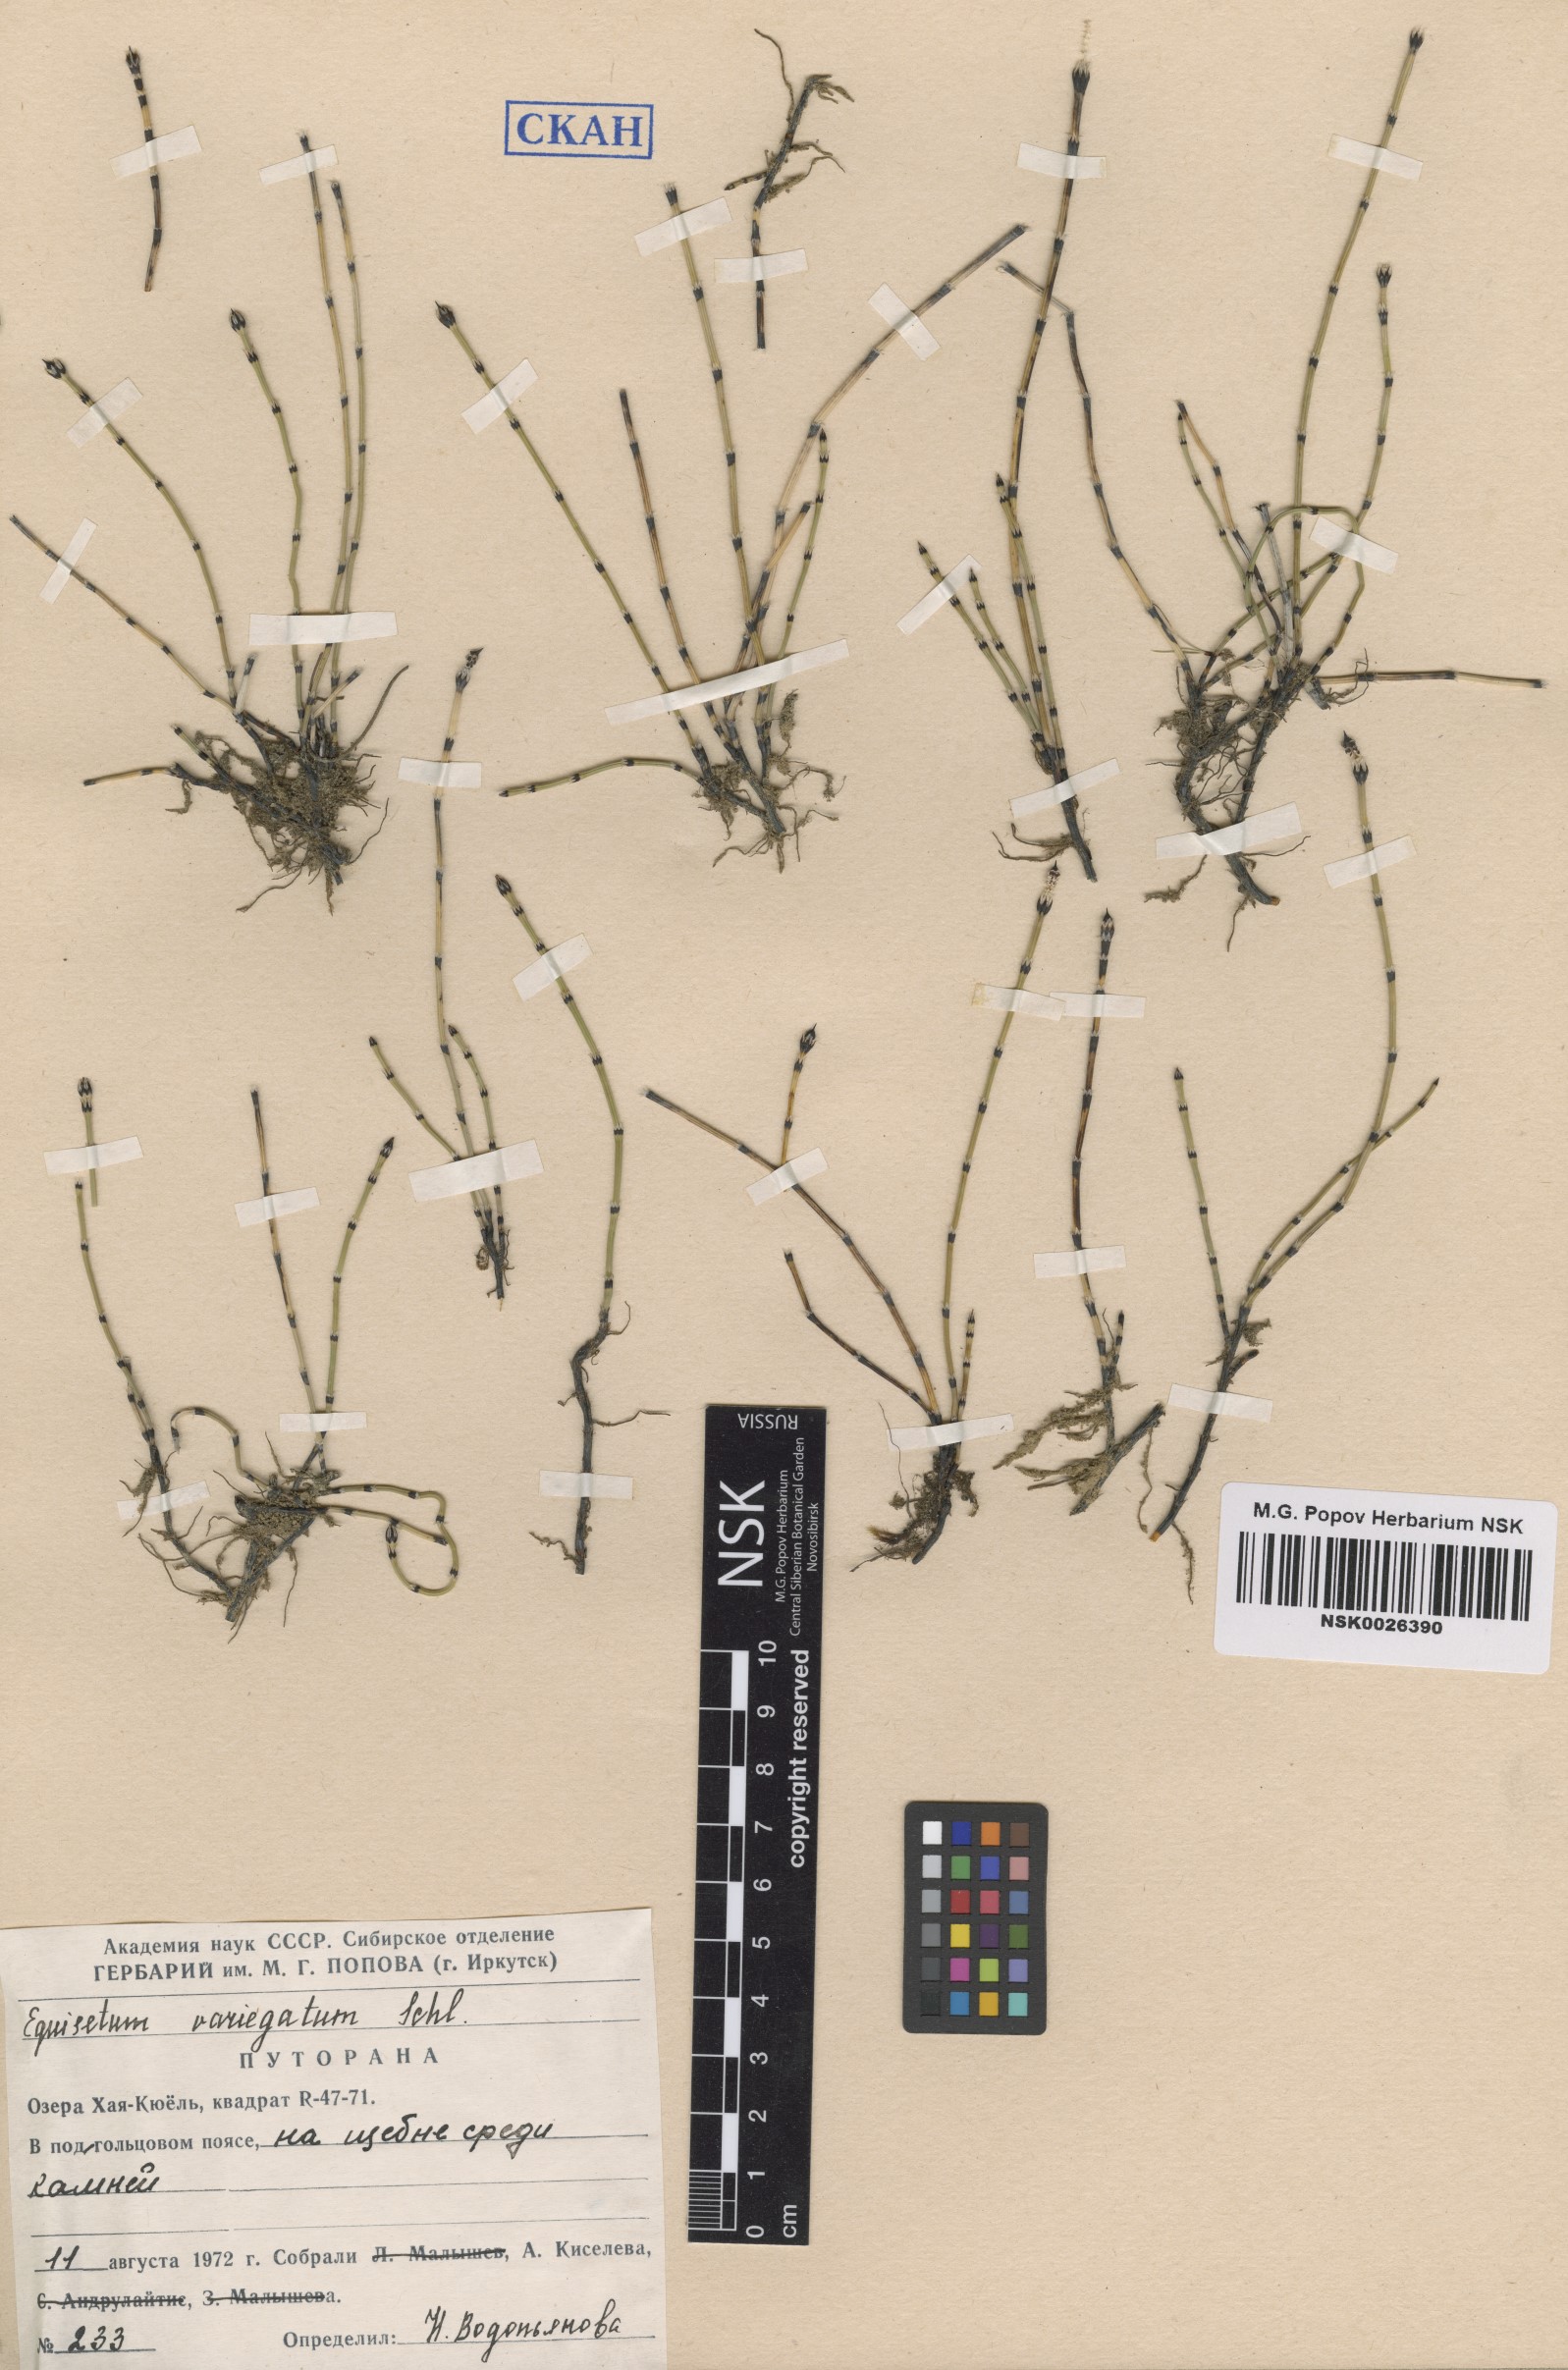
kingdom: Plantae
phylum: Tracheophyta
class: Polypodiopsida
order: Equisetales
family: Equisetaceae
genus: Equisetum
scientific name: Equisetum variegatum
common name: Variegated horsetail
